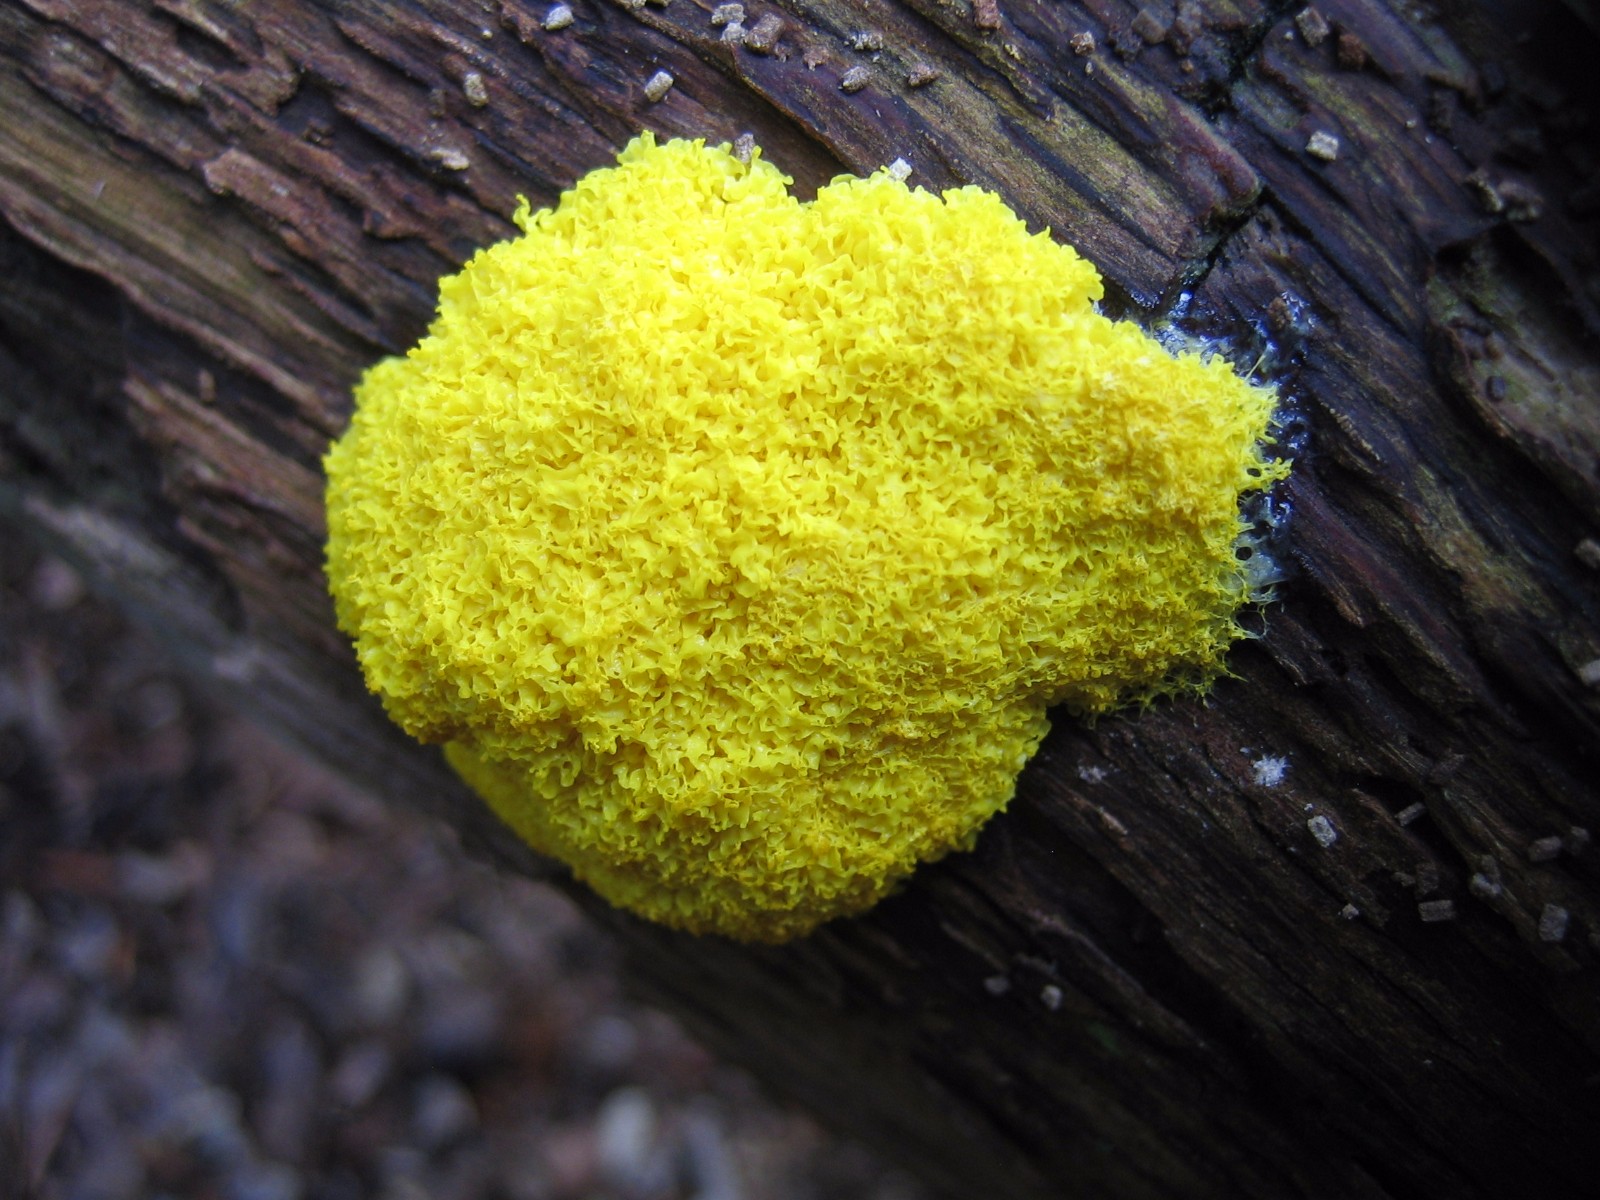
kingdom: Protozoa
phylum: Mycetozoa
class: Myxomycetes
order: Physarales
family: Physaraceae
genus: Fuligo
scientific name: Fuligo septica
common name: gul troldsmør
